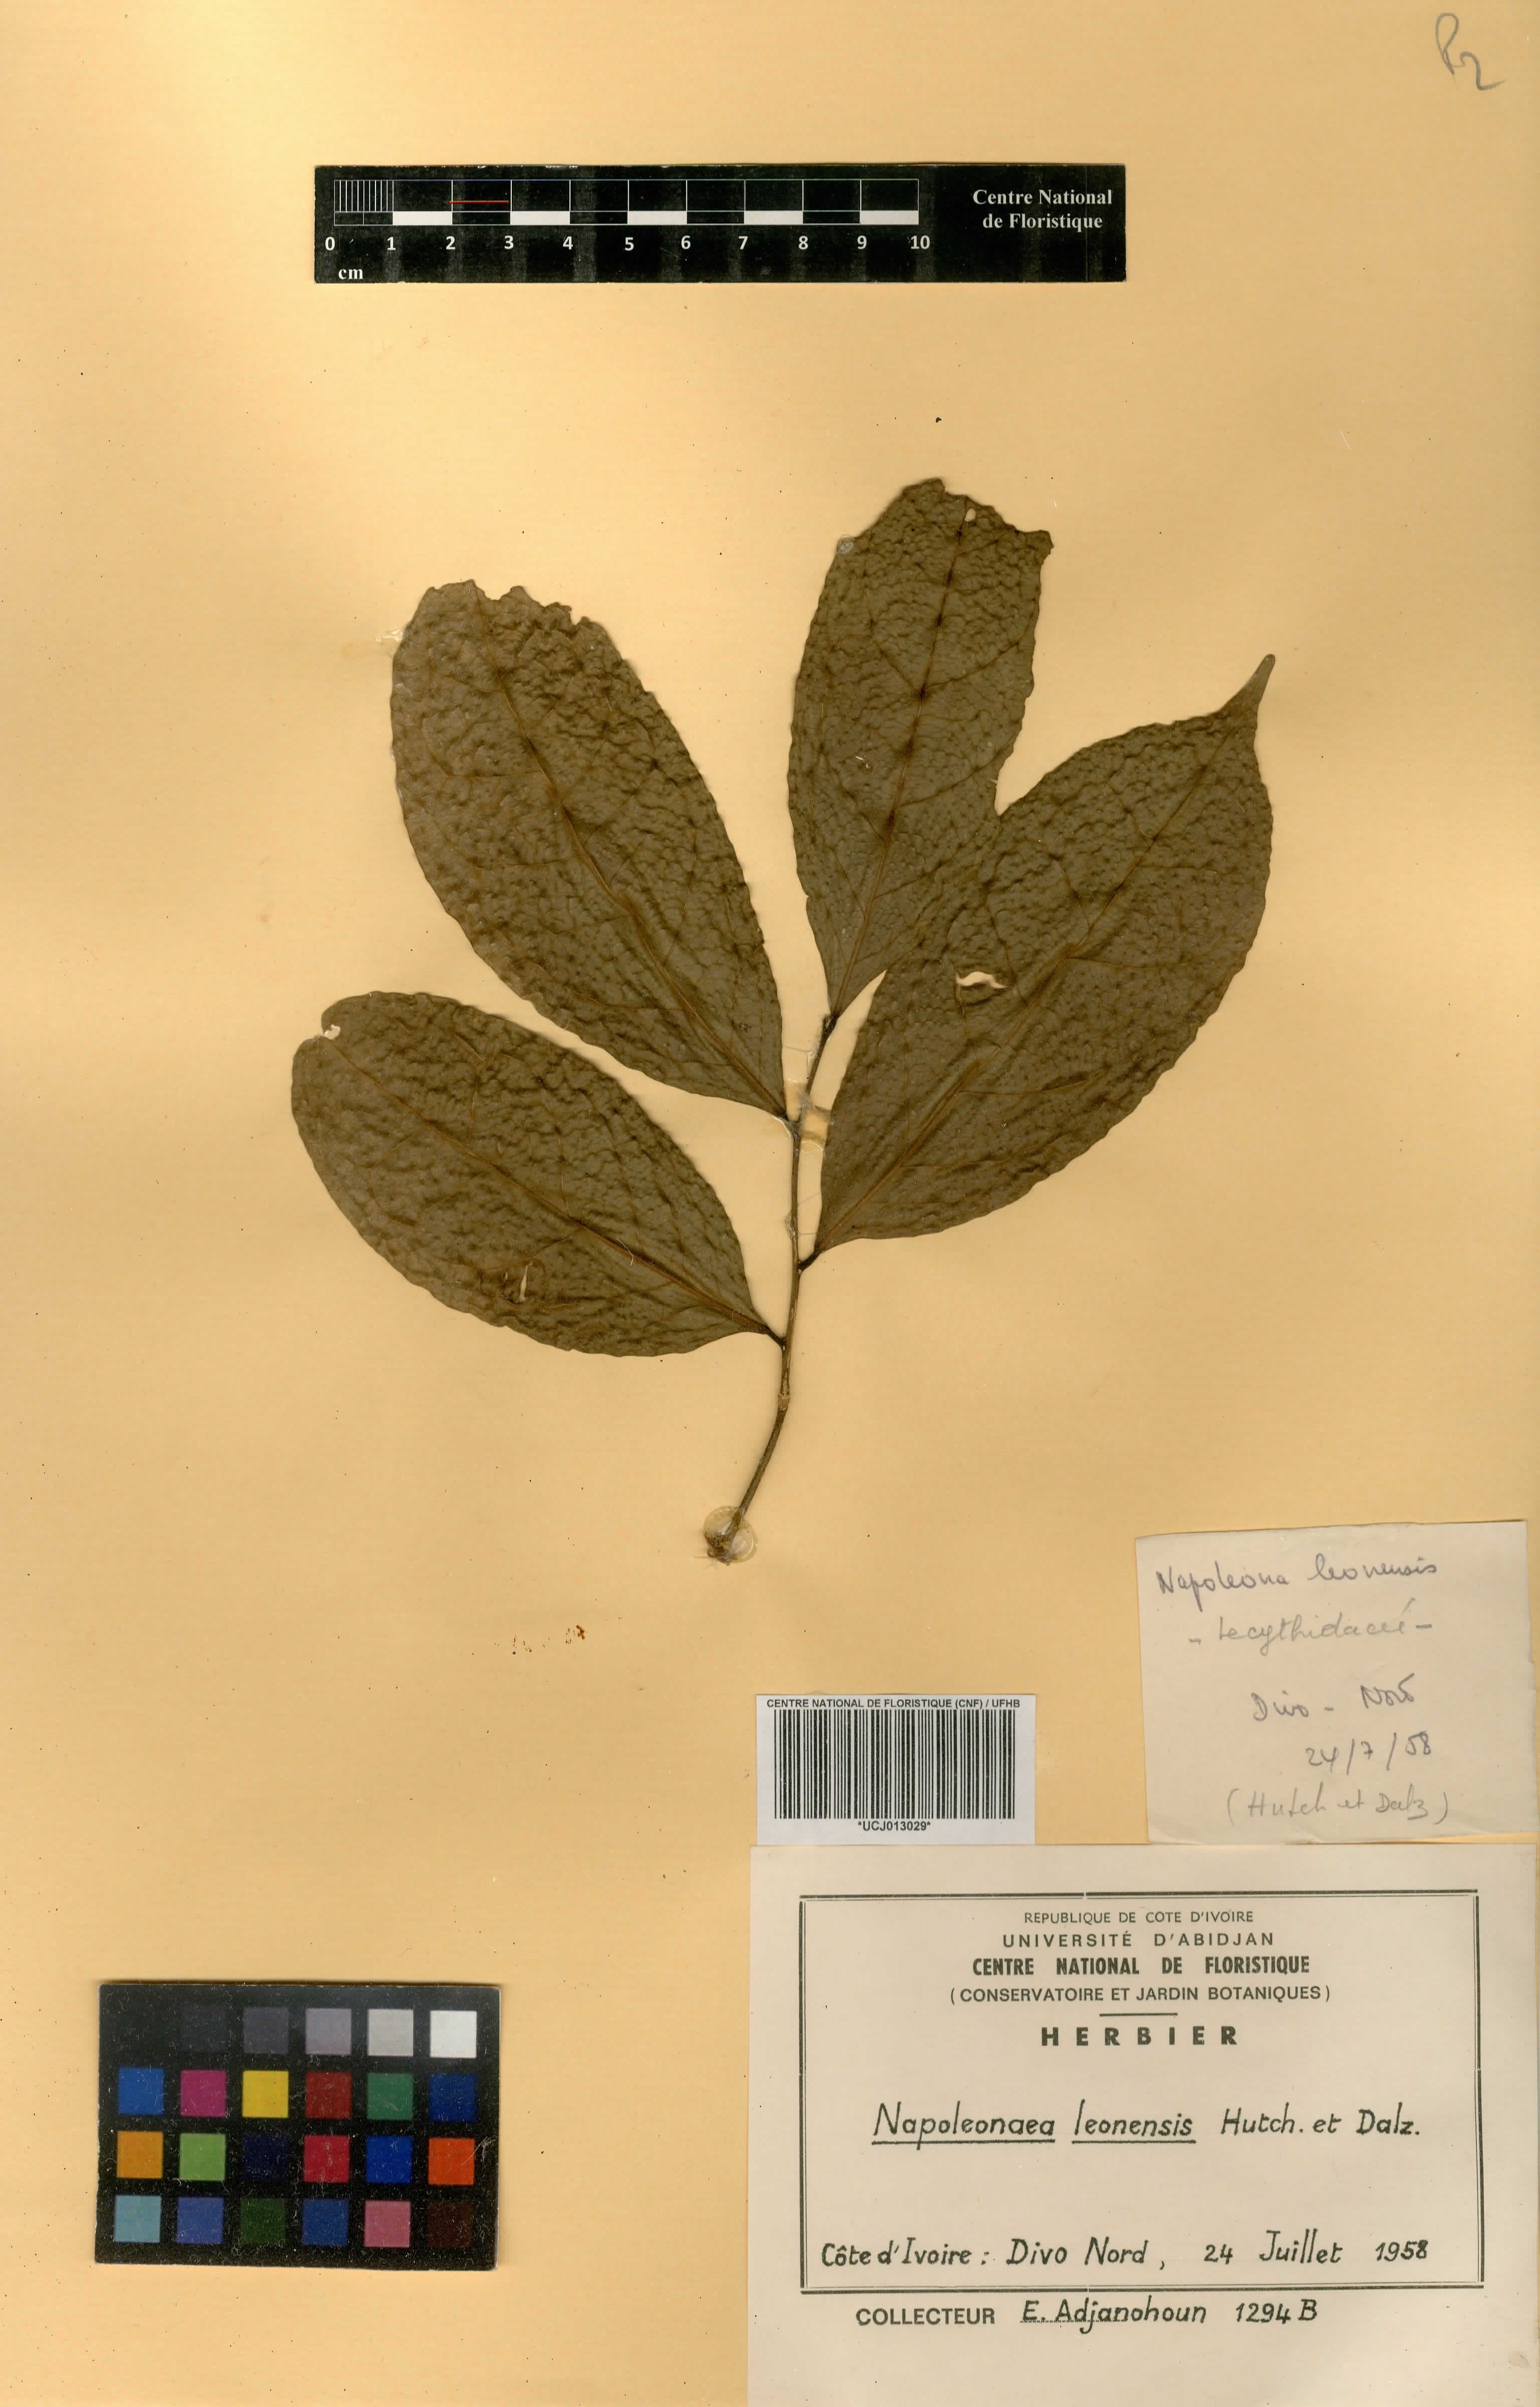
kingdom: Plantae
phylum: Tracheophyta
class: Magnoliopsida
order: Ericales
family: Lecythidaceae
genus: Napoleonaea
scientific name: Napoleonaea leonensis
